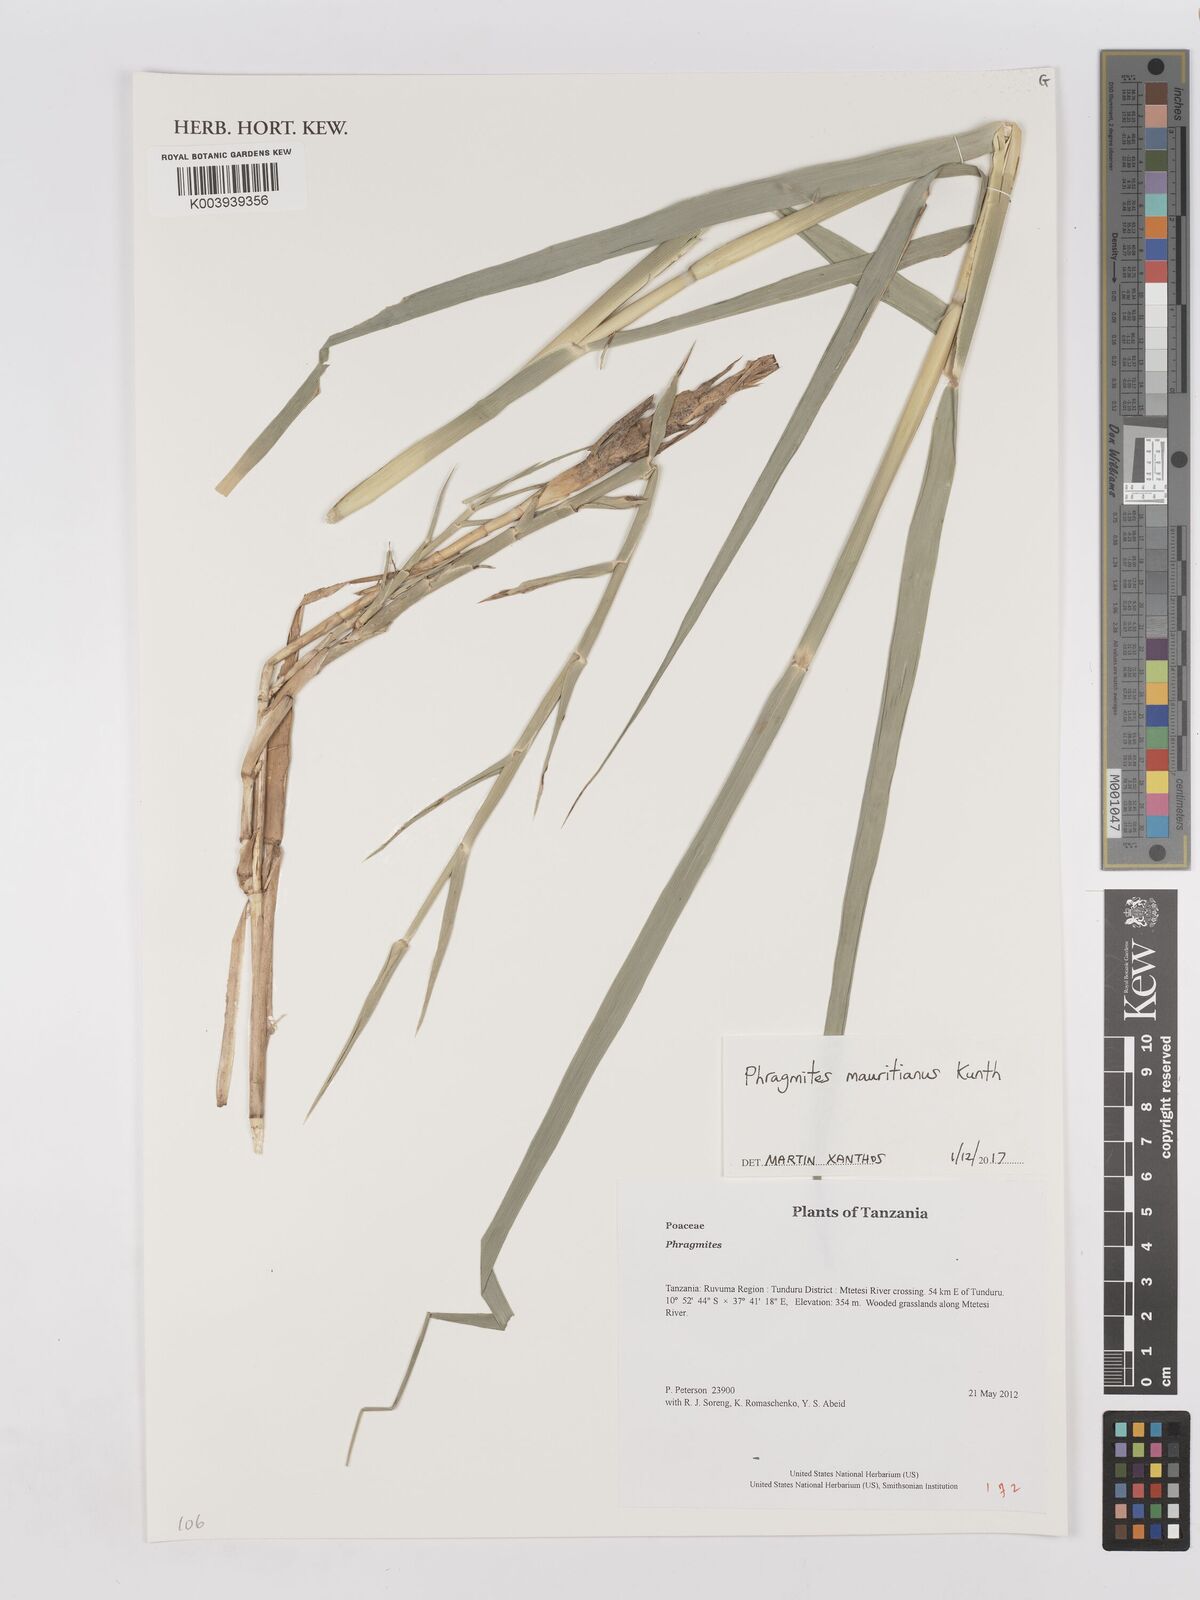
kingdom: Plantae
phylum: Tracheophyta
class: Liliopsida
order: Poales
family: Poaceae
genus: Phragmites
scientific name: Phragmites mauritianus
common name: Reed grass
